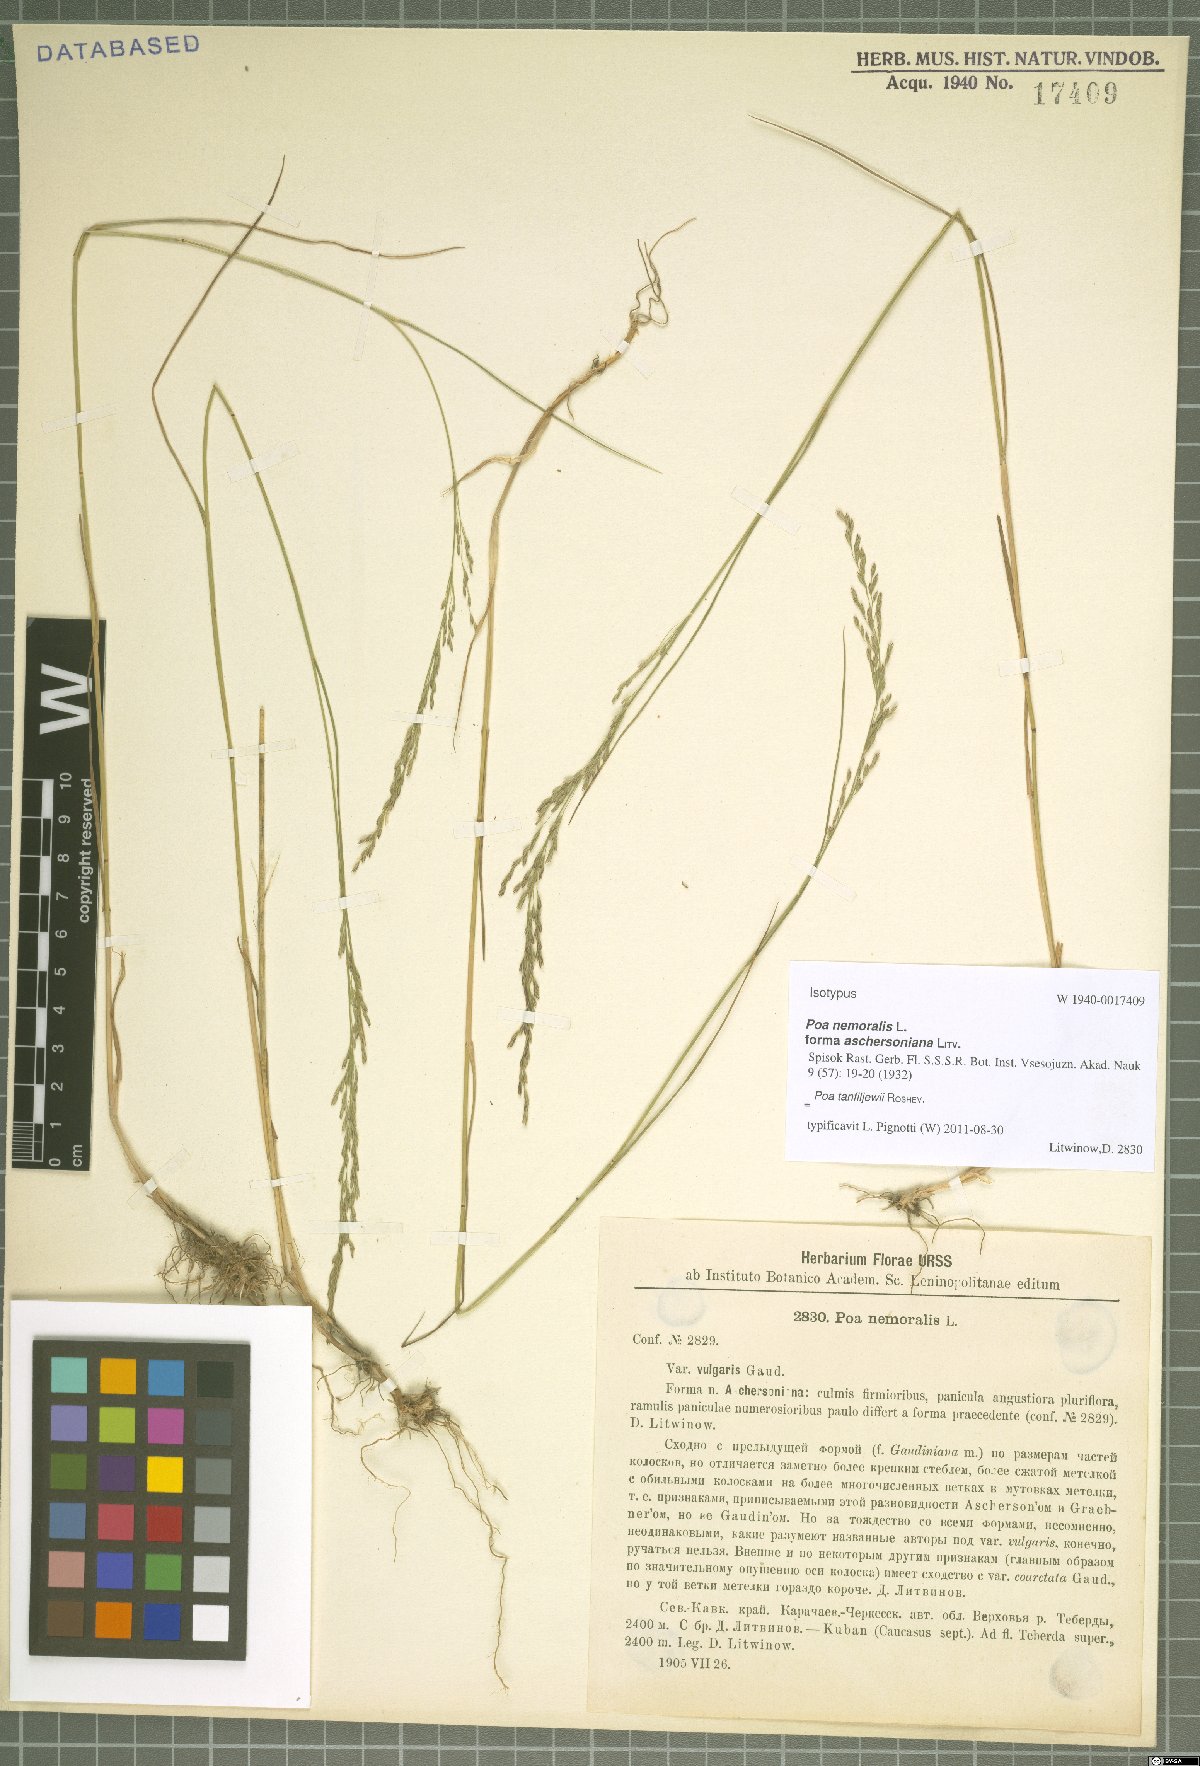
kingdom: Plantae
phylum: Tracheophyta
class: Liliopsida
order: Poales
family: Poaceae
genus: Poa
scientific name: Poa tanfiljewii
